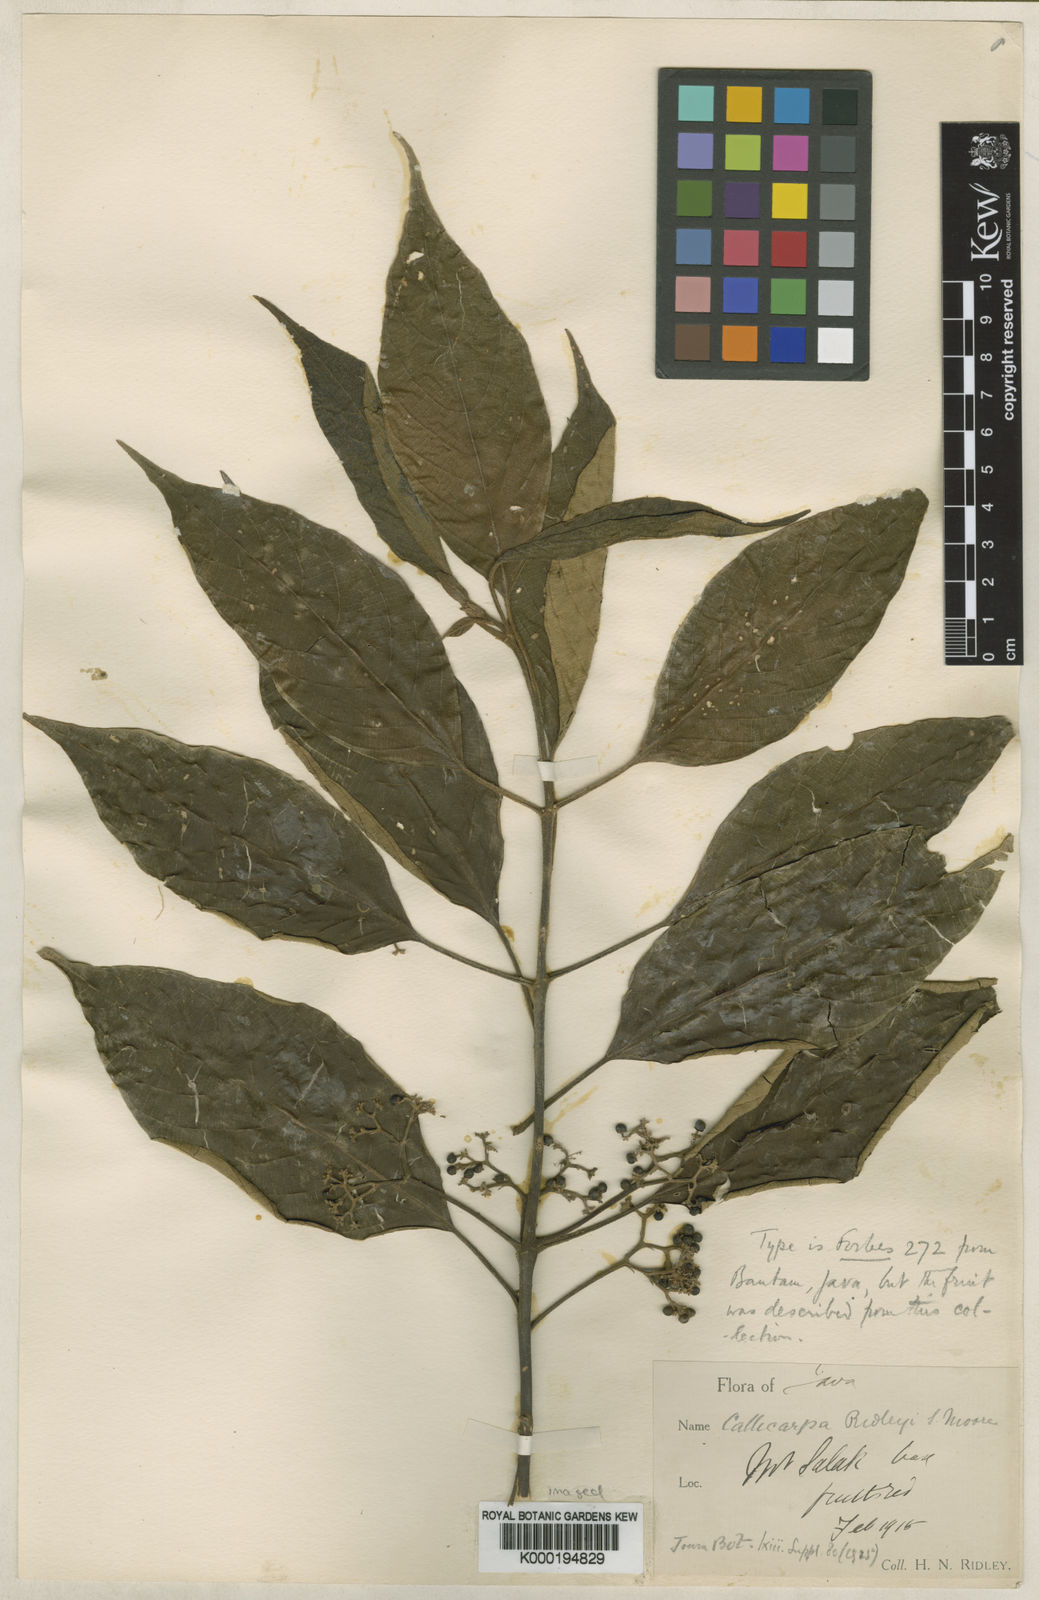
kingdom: Plantae
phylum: Tracheophyta
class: Magnoliopsida
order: Lamiales
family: Lamiaceae
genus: Callicarpa
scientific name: Callicarpa pentandra
